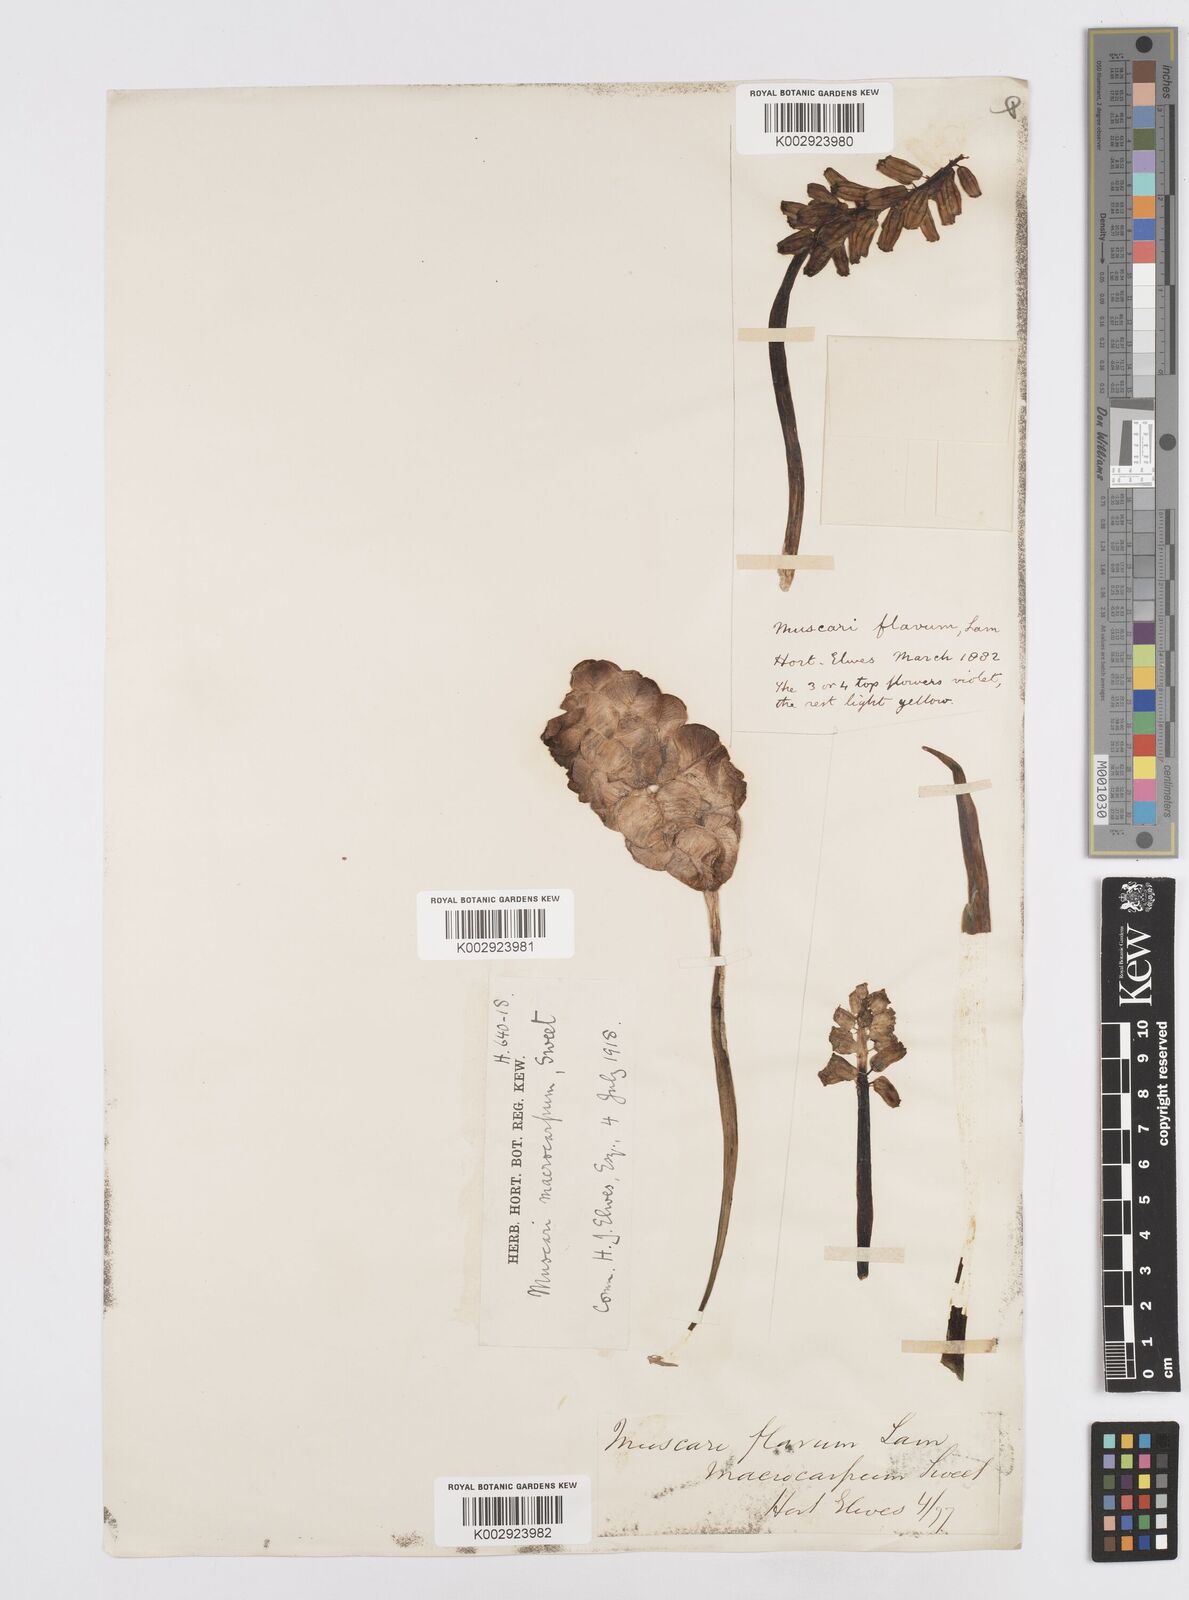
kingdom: Plantae
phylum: Tracheophyta
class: Liliopsida
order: Asparagales
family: Asparagaceae
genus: Muscarimia
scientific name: Muscarimia macrocarpa
